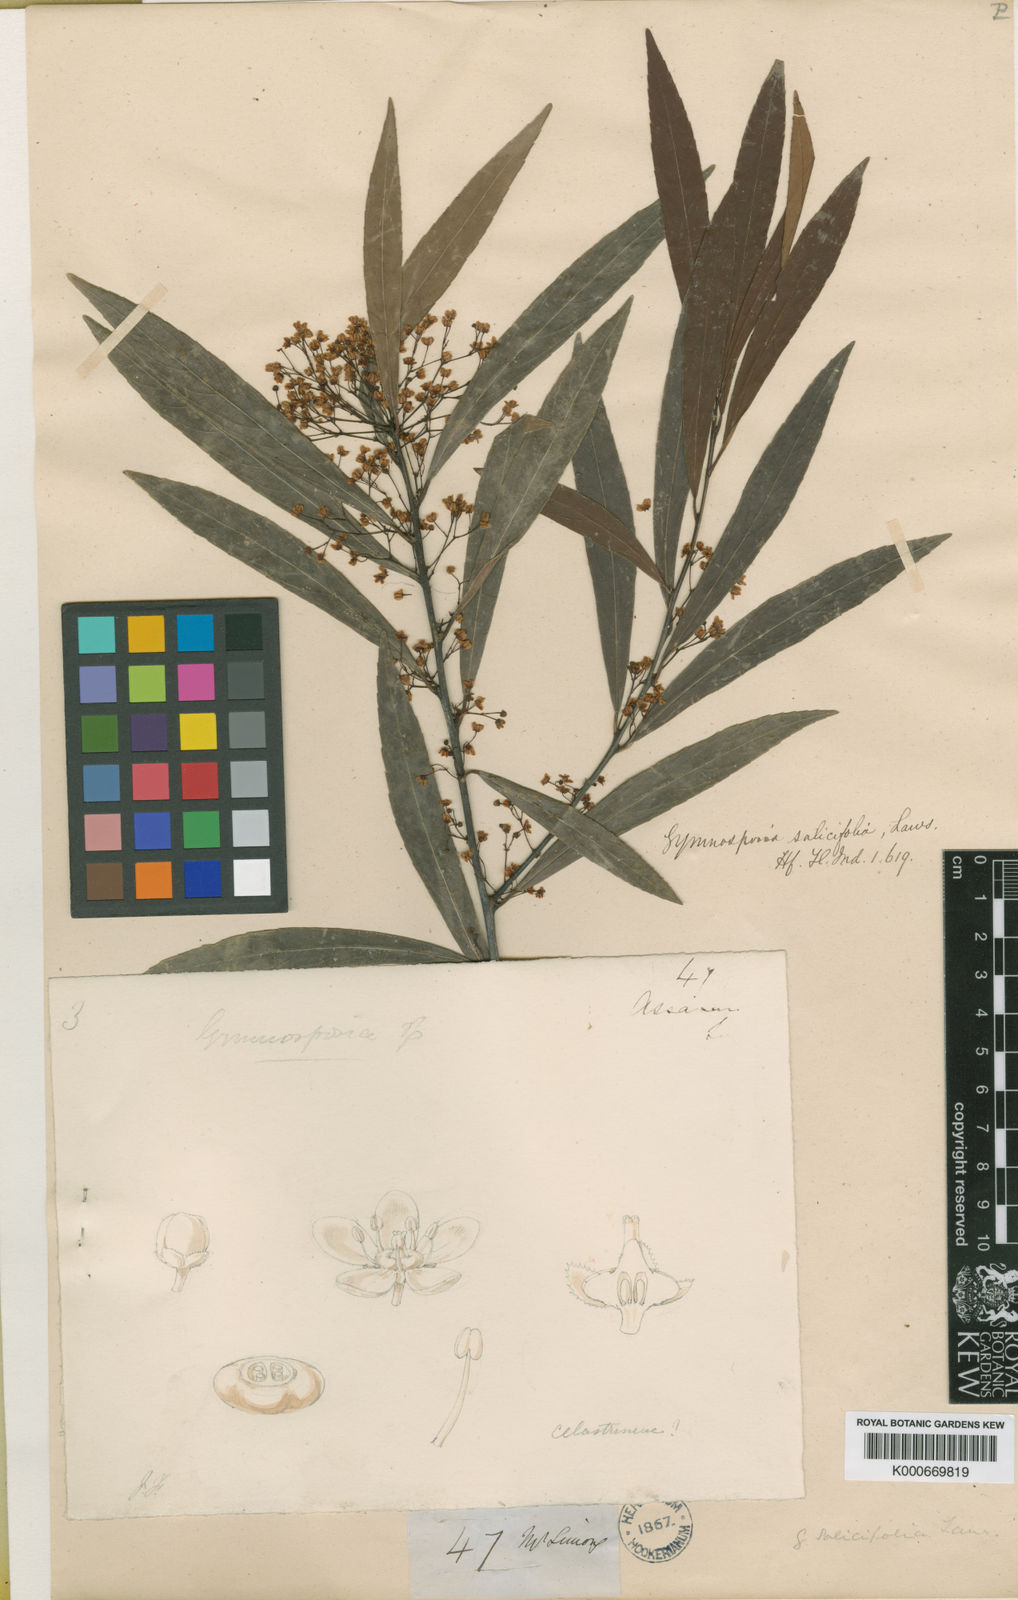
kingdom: Plantae
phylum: Tracheophyta
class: Magnoliopsida
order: Celastrales
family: Celastraceae
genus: Gymnosporia
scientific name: Gymnosporia salicifolia
